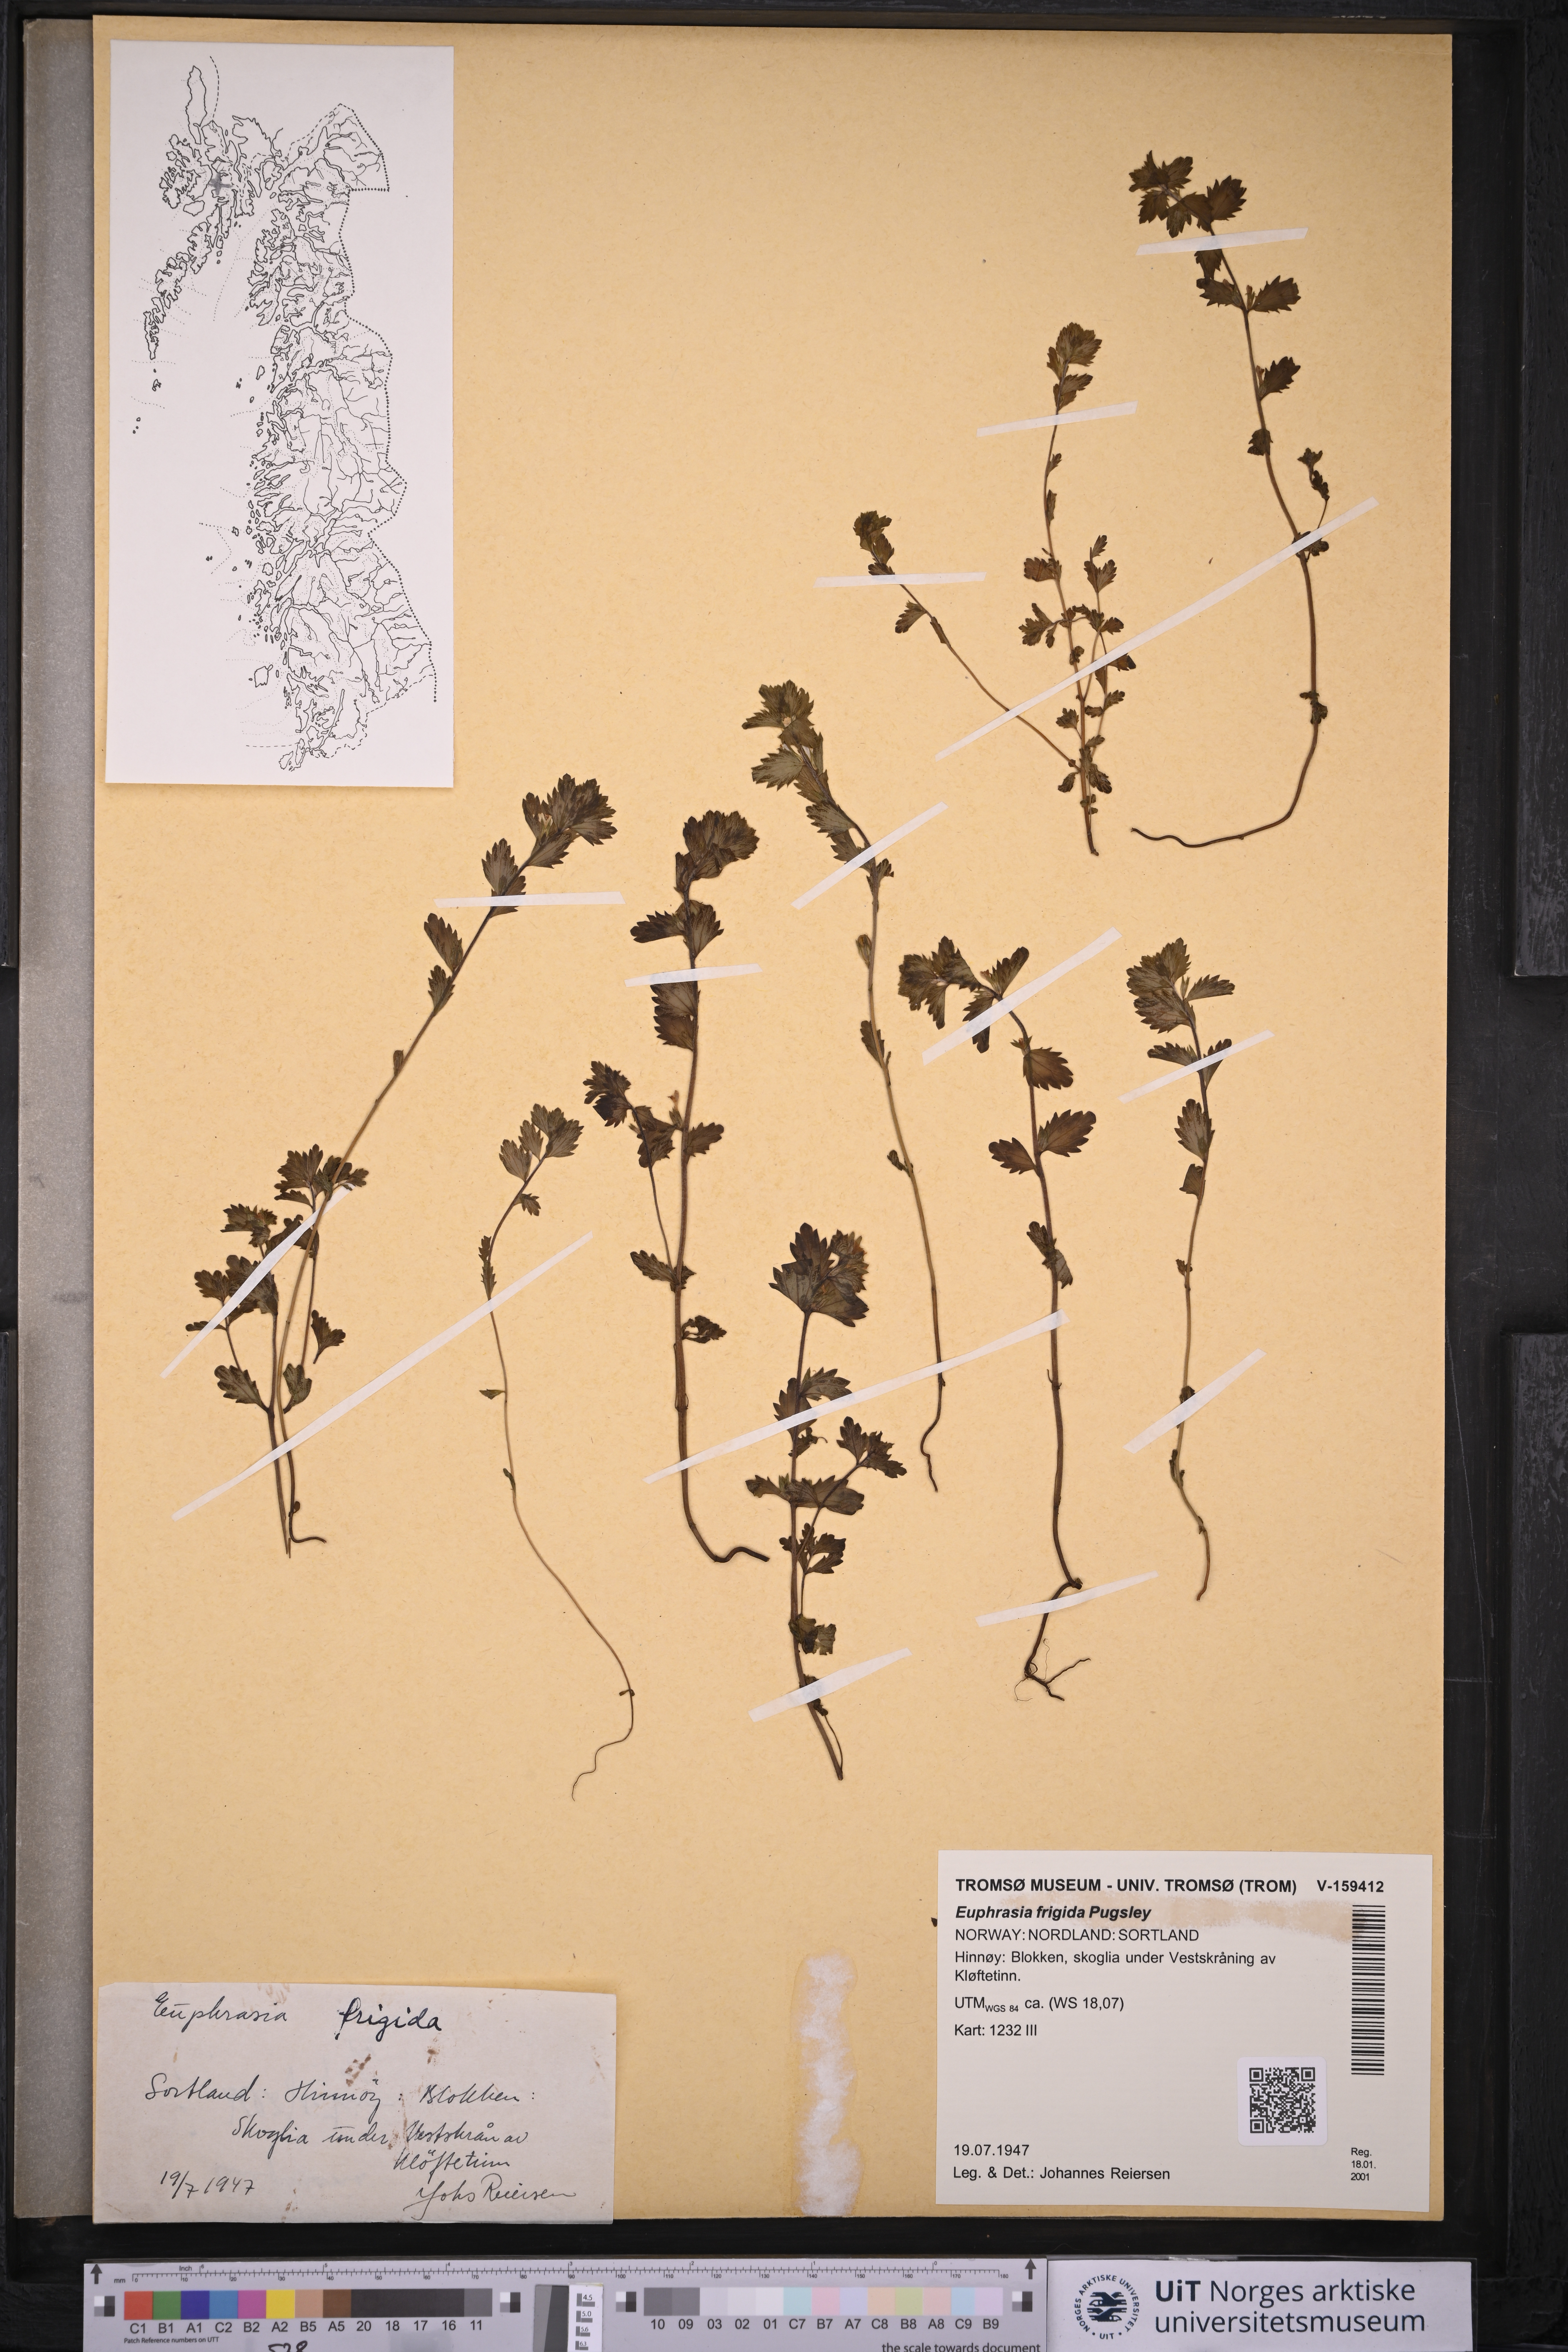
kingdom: Plantae
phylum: Tracheophyta
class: Magnoliopsida
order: Lamiales
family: Orobanchaceae
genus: Euphrasia
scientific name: Euphrasia frigida
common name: An eyebright
